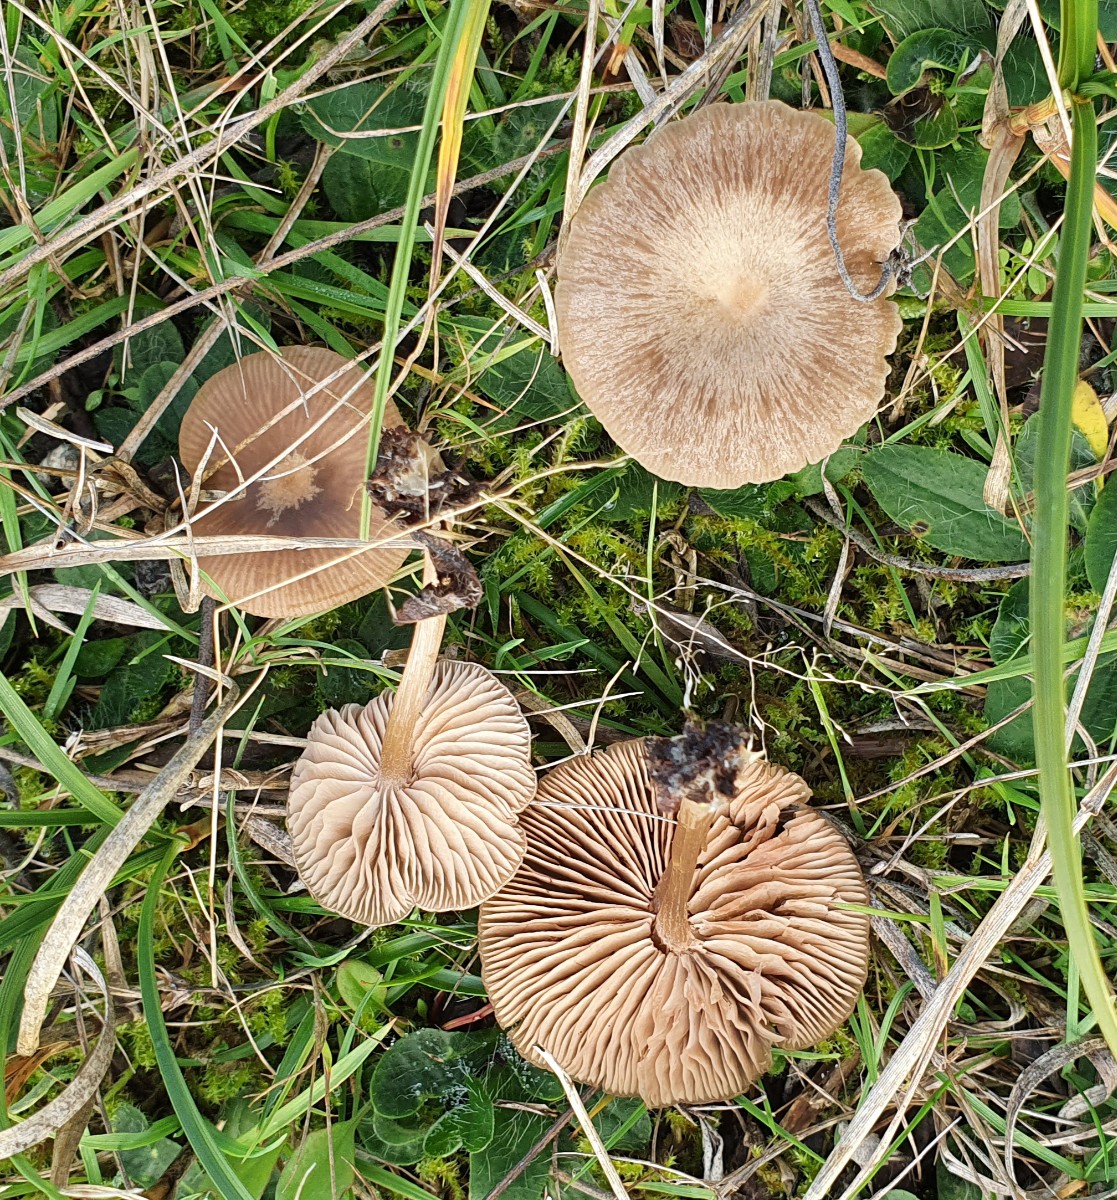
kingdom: Fungi
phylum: Basidiomycota
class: Agaricomycetes
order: Agaricales
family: Entolomataceae
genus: Entoloma
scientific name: Entoloma ortonii
